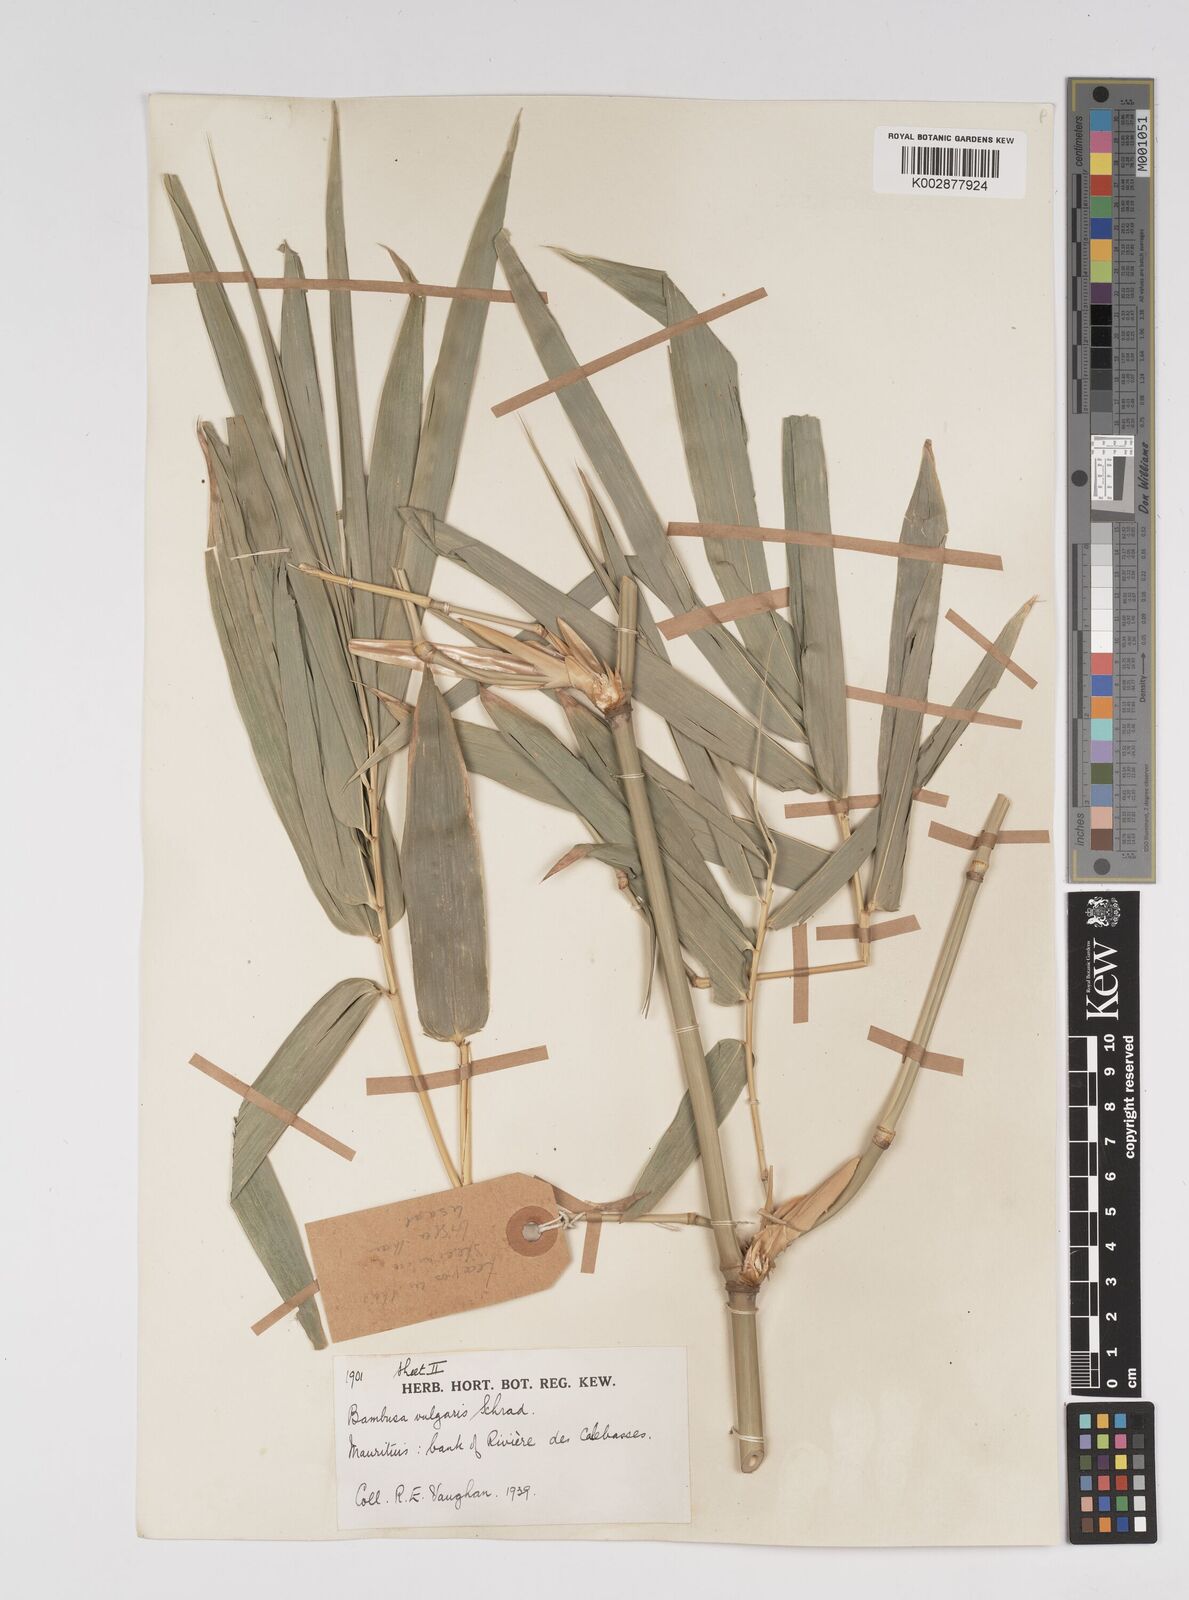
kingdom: Plantae
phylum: Tracheophyta
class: Liliopsida
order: Poales
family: Poaceae
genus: Bambusa
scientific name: Bambusa vulgaris
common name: Common bamboo
